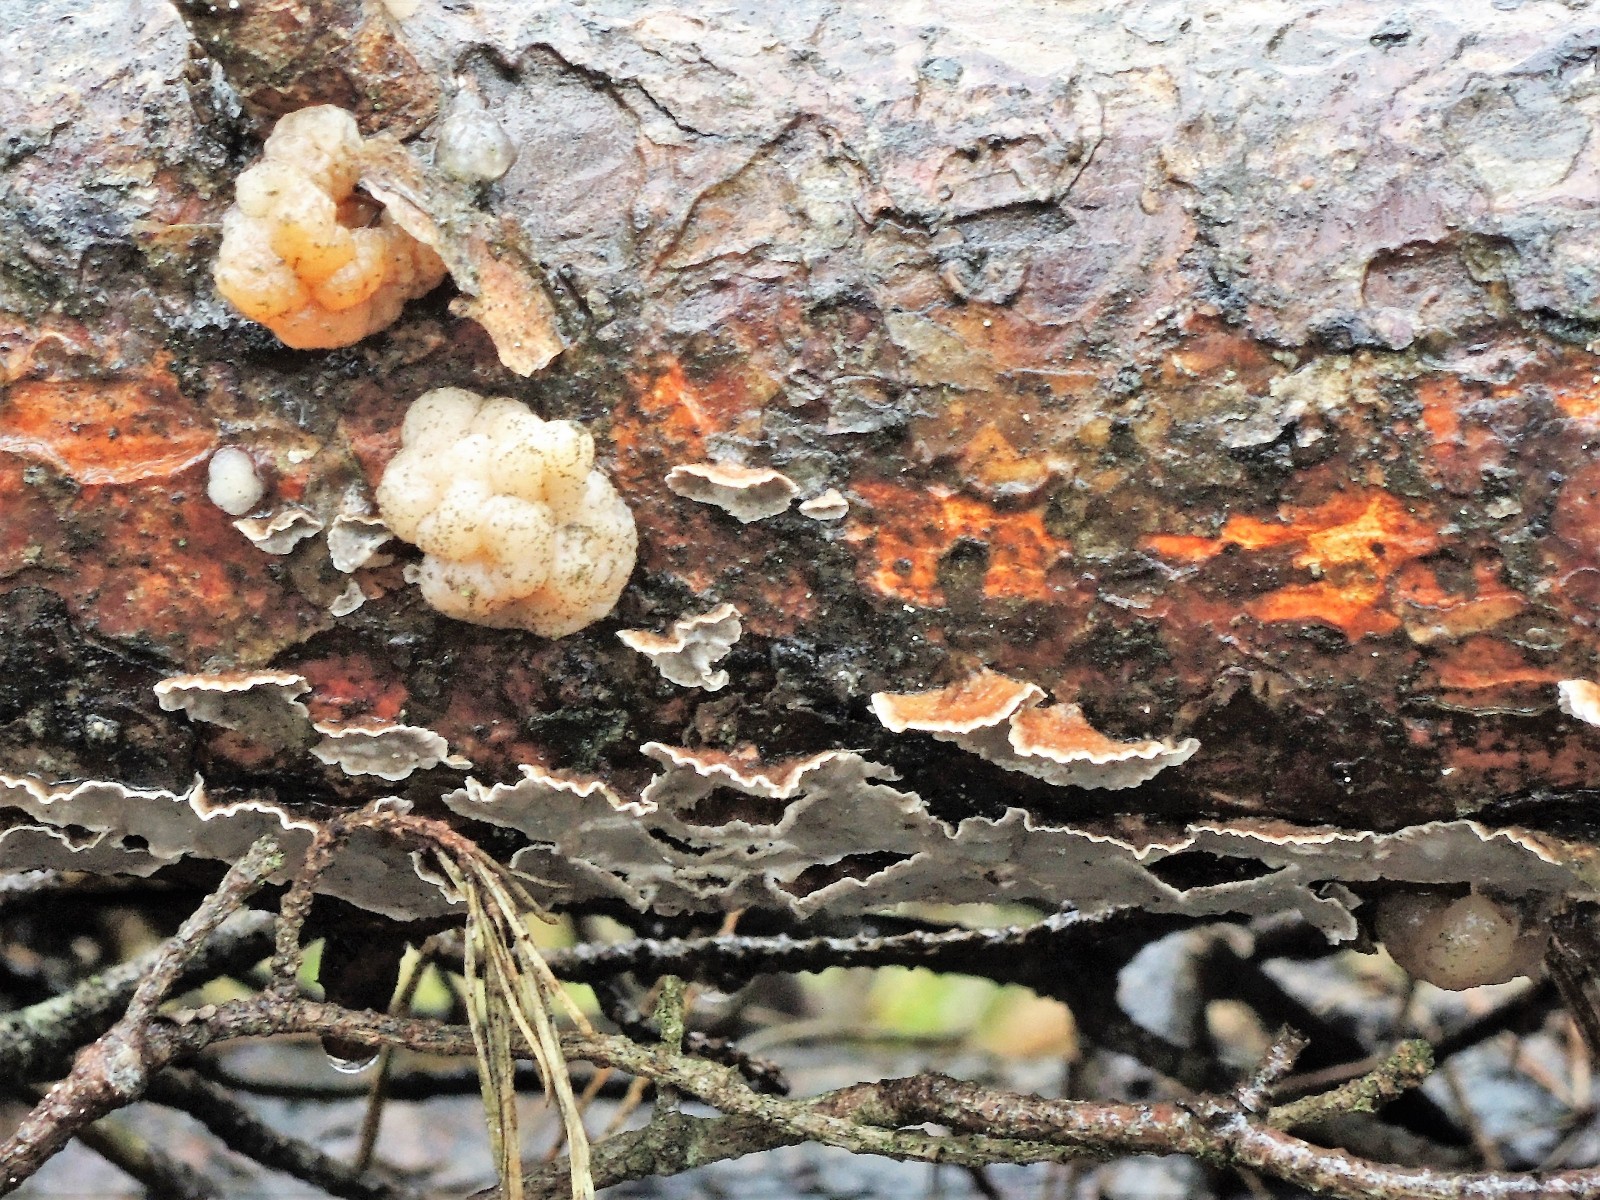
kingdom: Fungi
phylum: Basidiomycota
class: Tremellomycetes
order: Tremellales
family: Naemateliaceae
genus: Naematelia
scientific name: Naematelia encephala
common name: fyrre-bævresvamp
